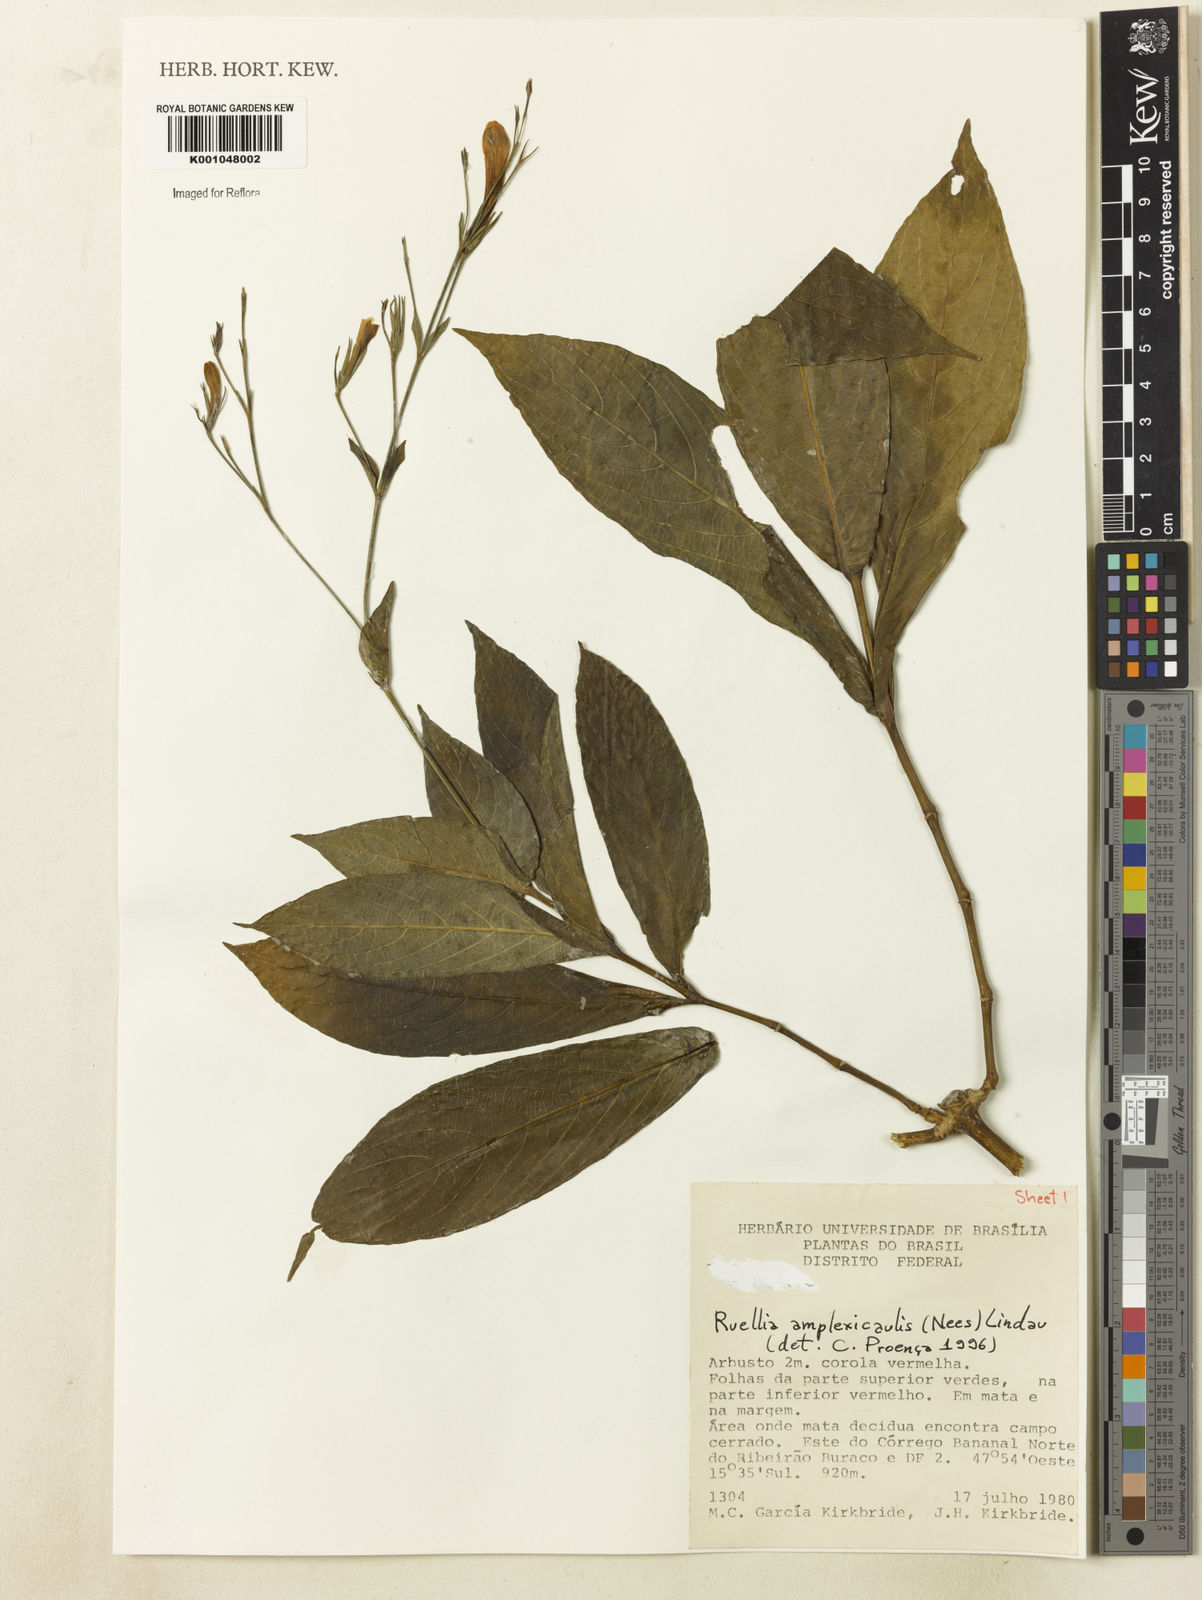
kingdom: Plantae
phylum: Tracheophyta
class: Magnoliopsida
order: Lamiales
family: Acanthaceae
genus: Ruellia
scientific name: Ruellia amplexicaulis
